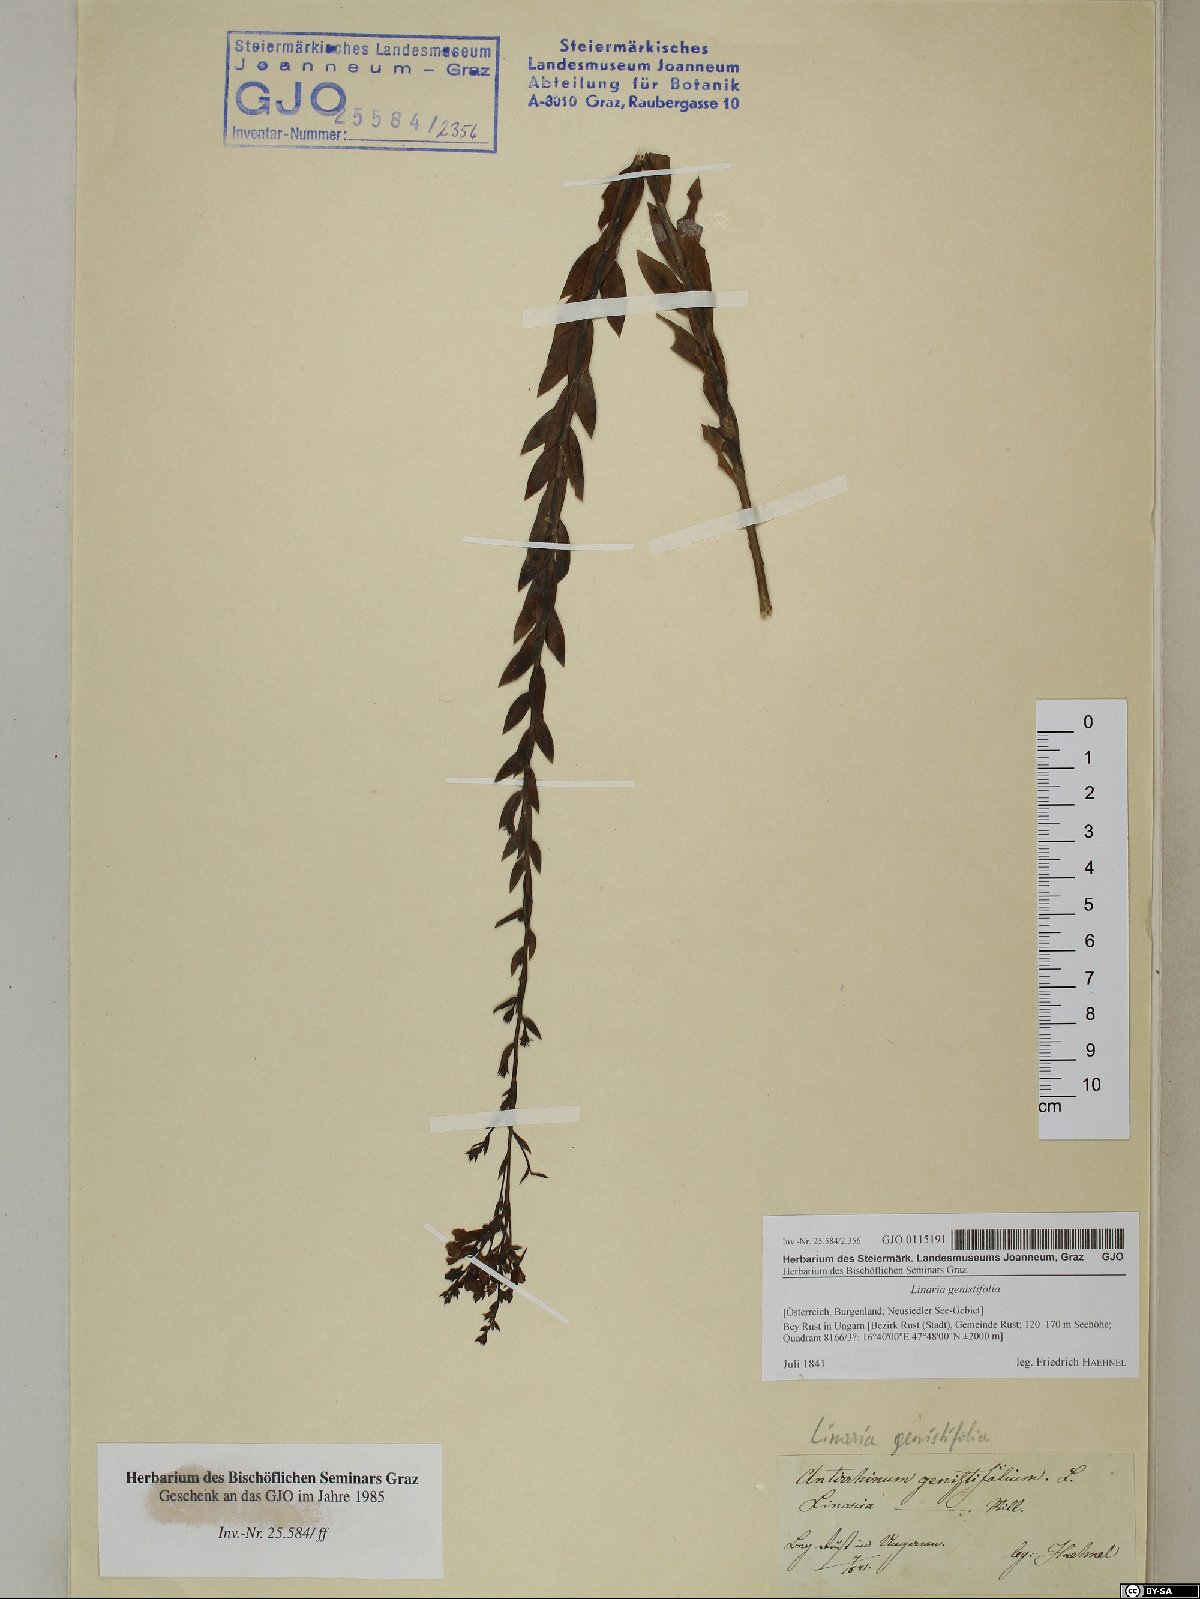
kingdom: Plantae
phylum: Tracheophyta
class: Magnoliopsida
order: Lamiales
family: Plantaginaceae
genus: Linaria
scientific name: Linaria genistifolia
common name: Broomleaf toadflax
